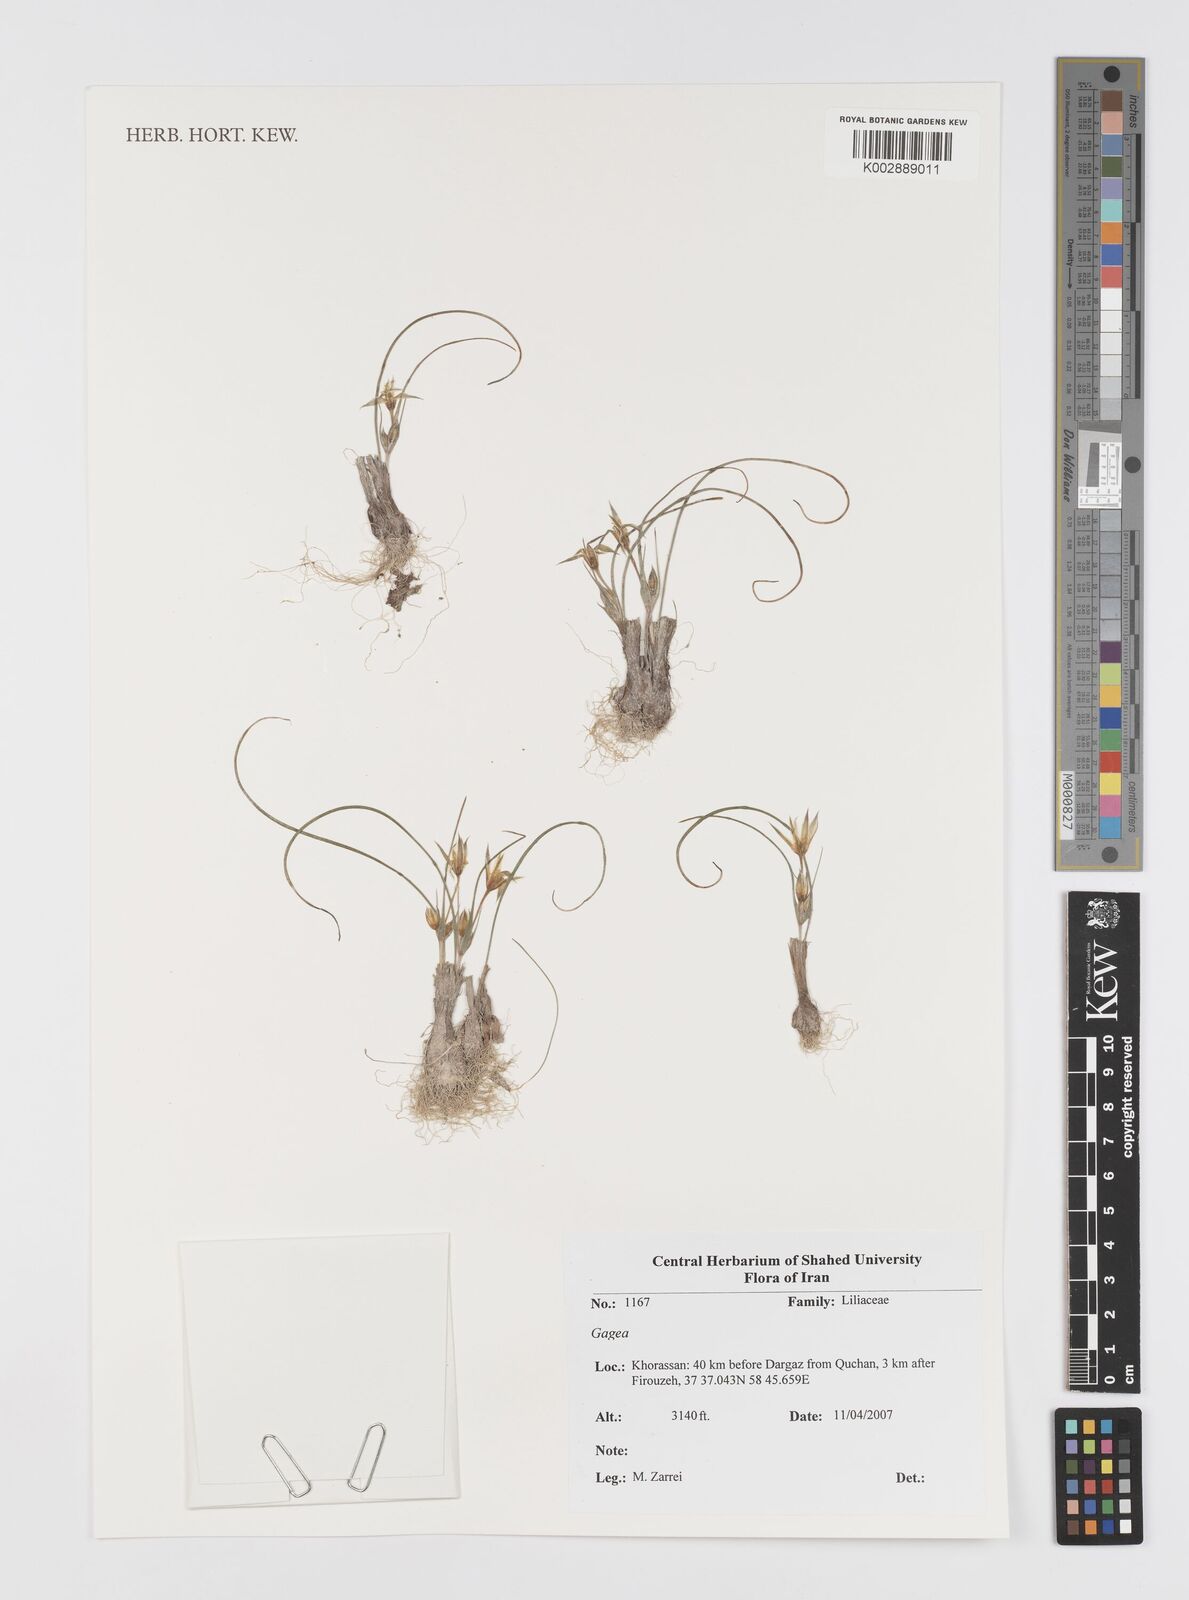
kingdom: Plantae
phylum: Tracheophyta
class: Liliopsida
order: Liliales
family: Liliaceae
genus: Gagea
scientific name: Gagea
